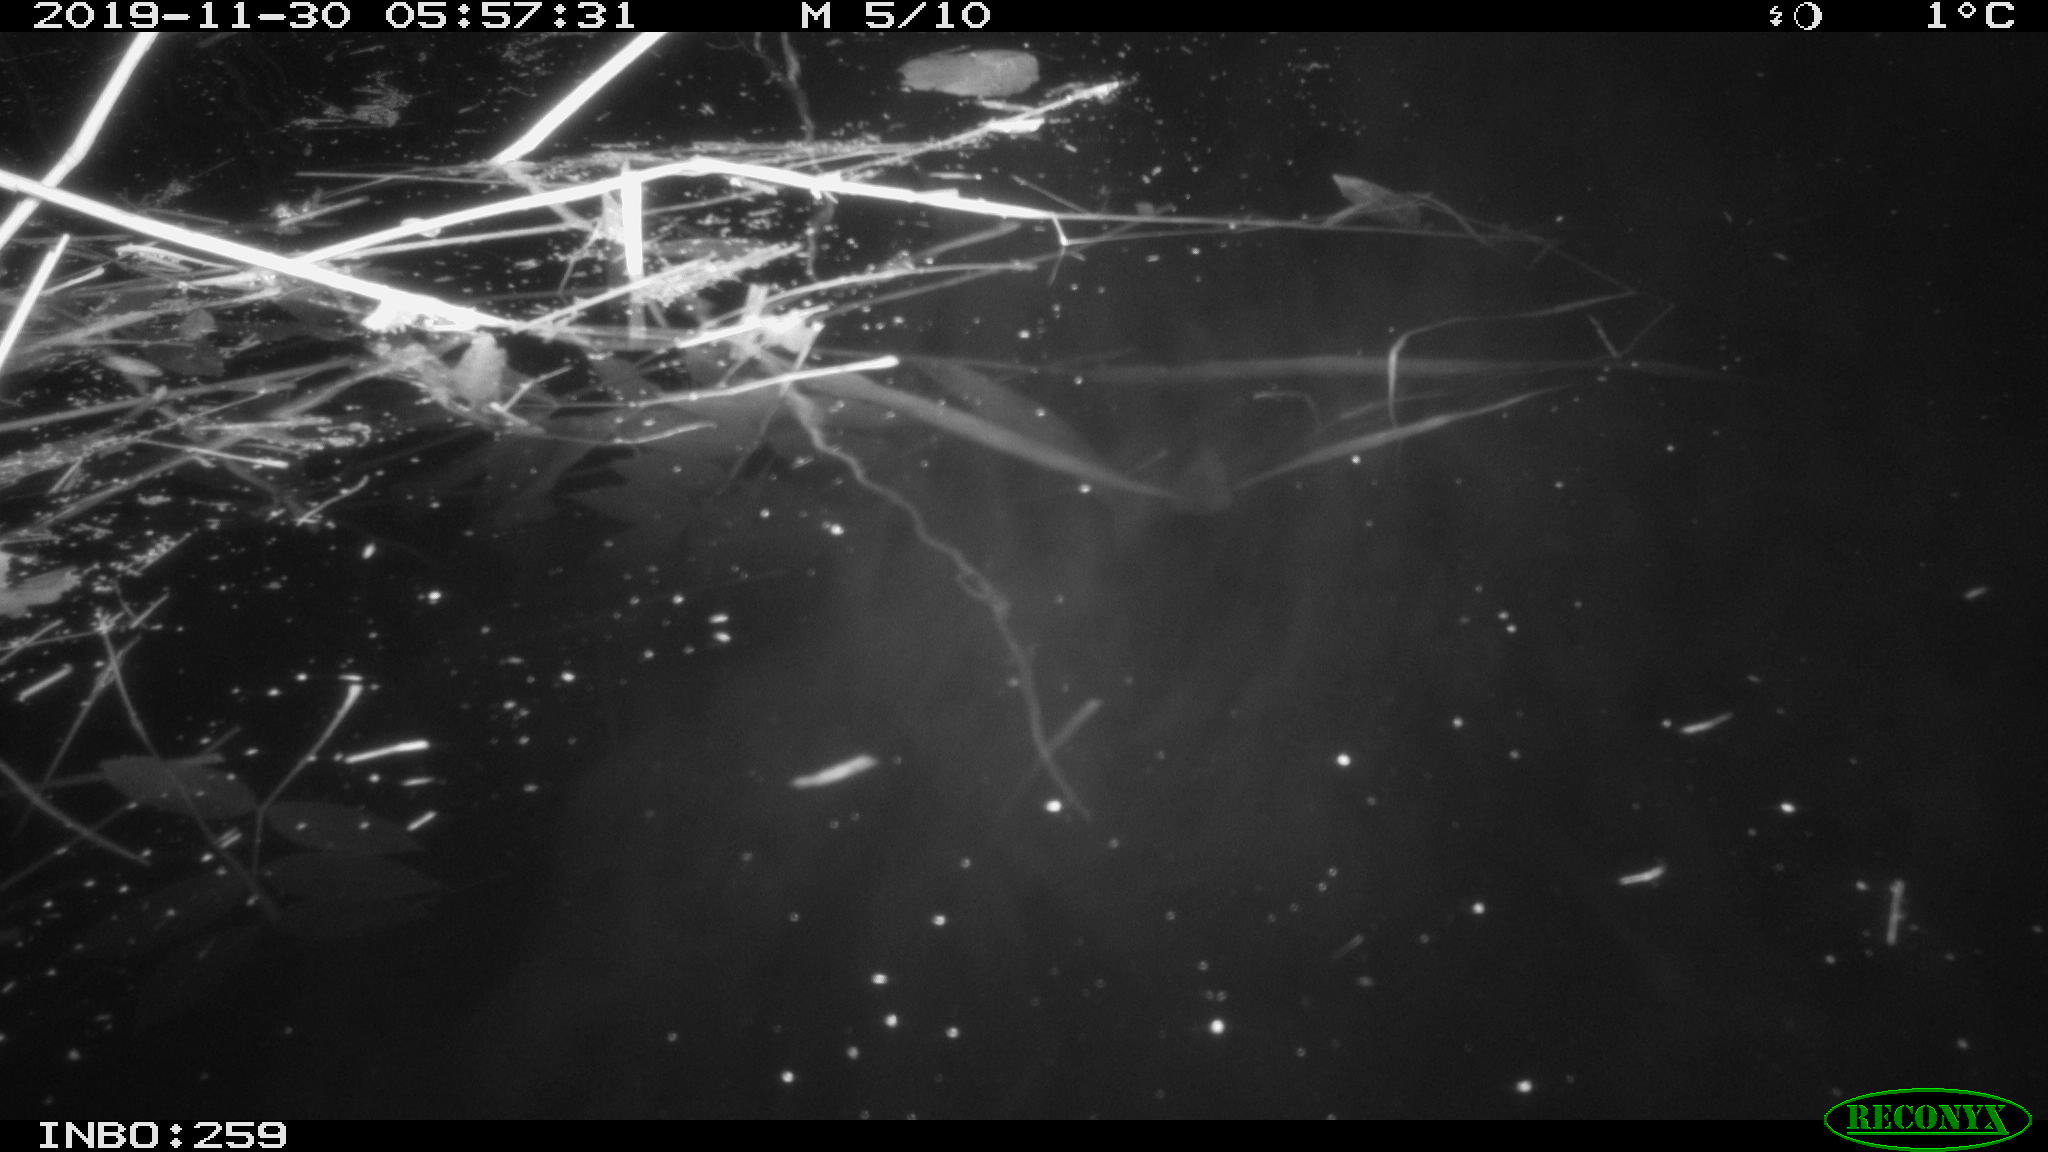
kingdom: Animalia
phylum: Chordata
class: Mammalia
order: Rodentia
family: Cricetidae
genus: Ondatra
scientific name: Ondatra zibethicus
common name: Muskrat
